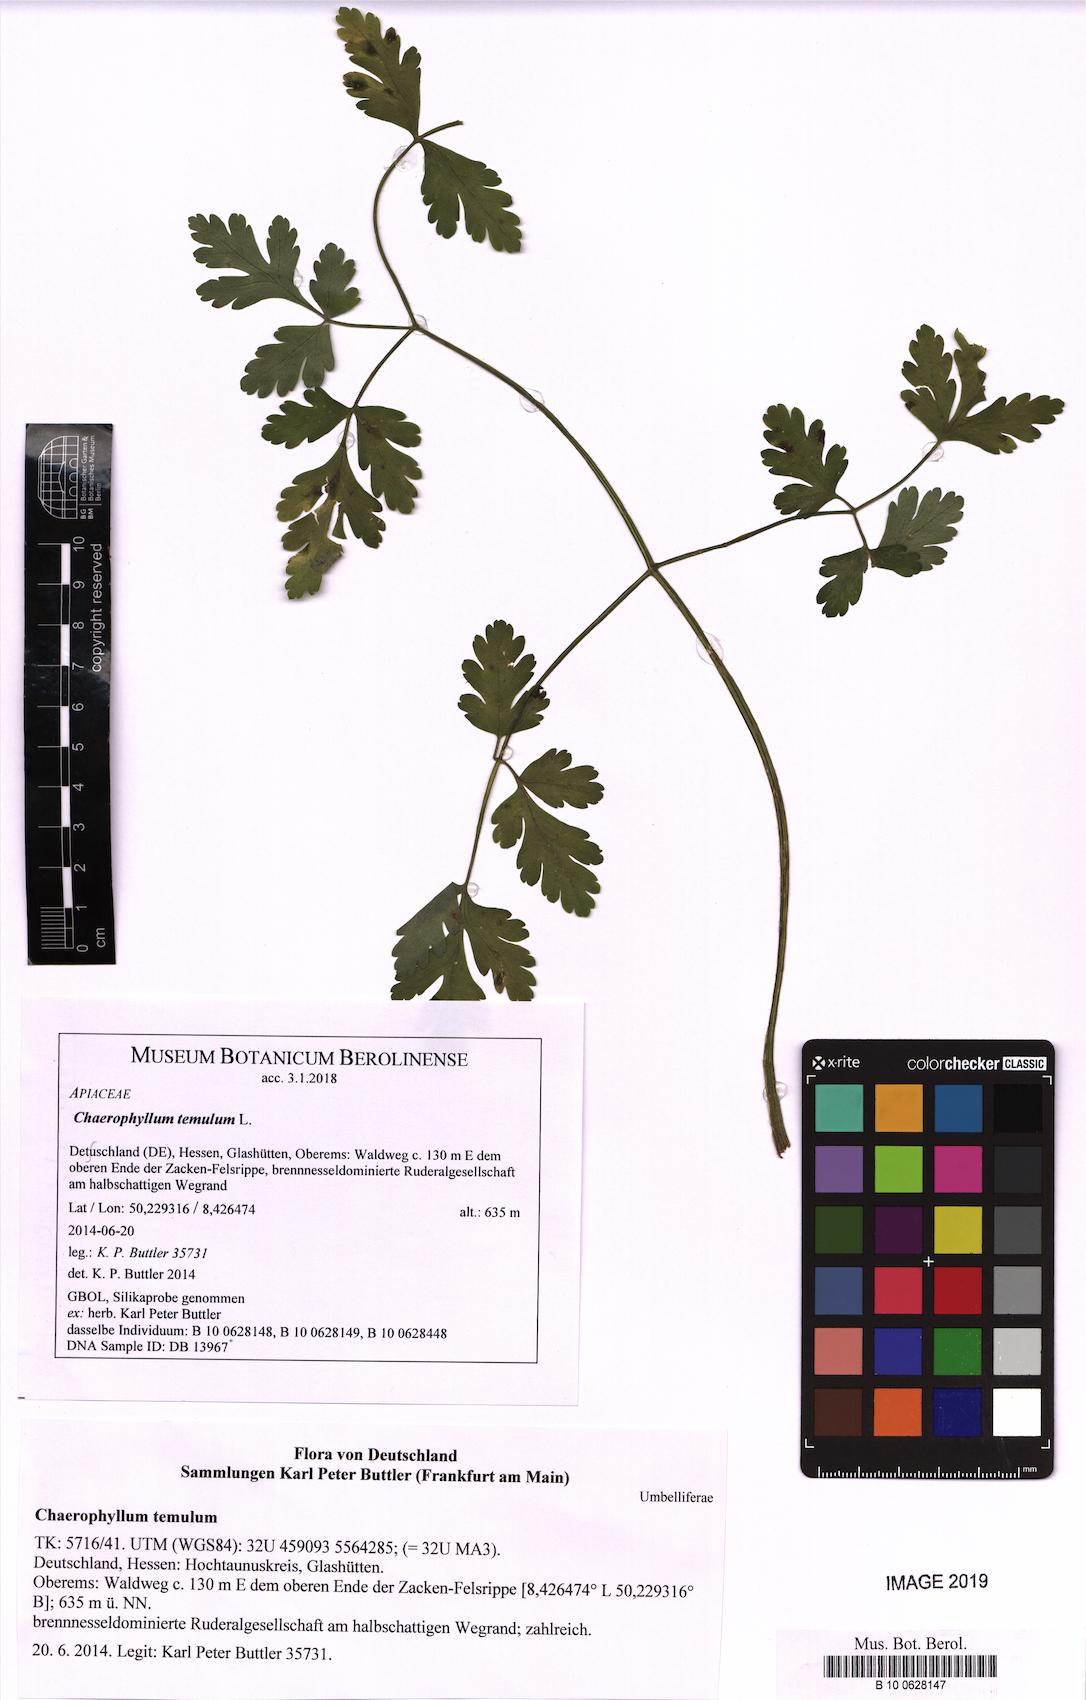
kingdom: Plantae
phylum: Tracheophyta
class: Magnoliopsida
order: Apiales
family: Apiaceae
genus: Chaerophyllum
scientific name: Chaerophyllum temulum
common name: Rough chervil
